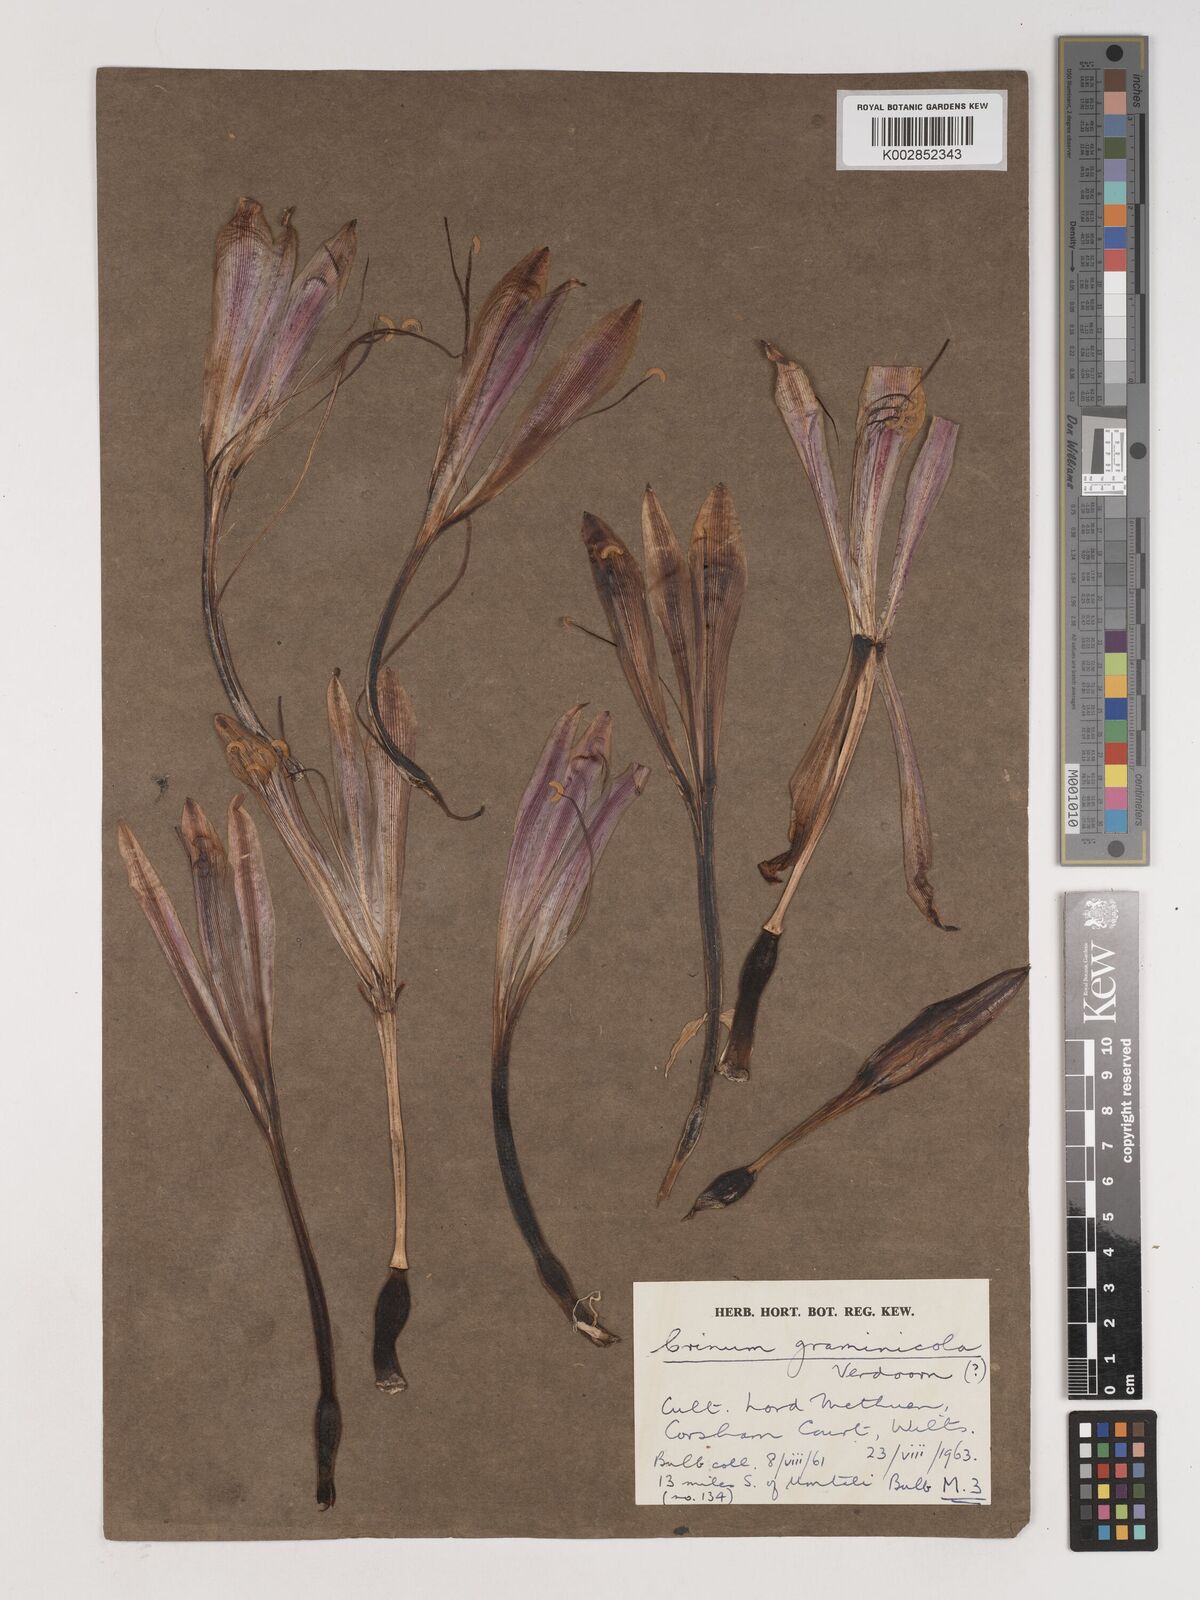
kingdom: Plantae
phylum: Tracheophyta
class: Liliopsida
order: Asparagales
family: Amaryllidaceae
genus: Crinum
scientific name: Crinum graminicola
